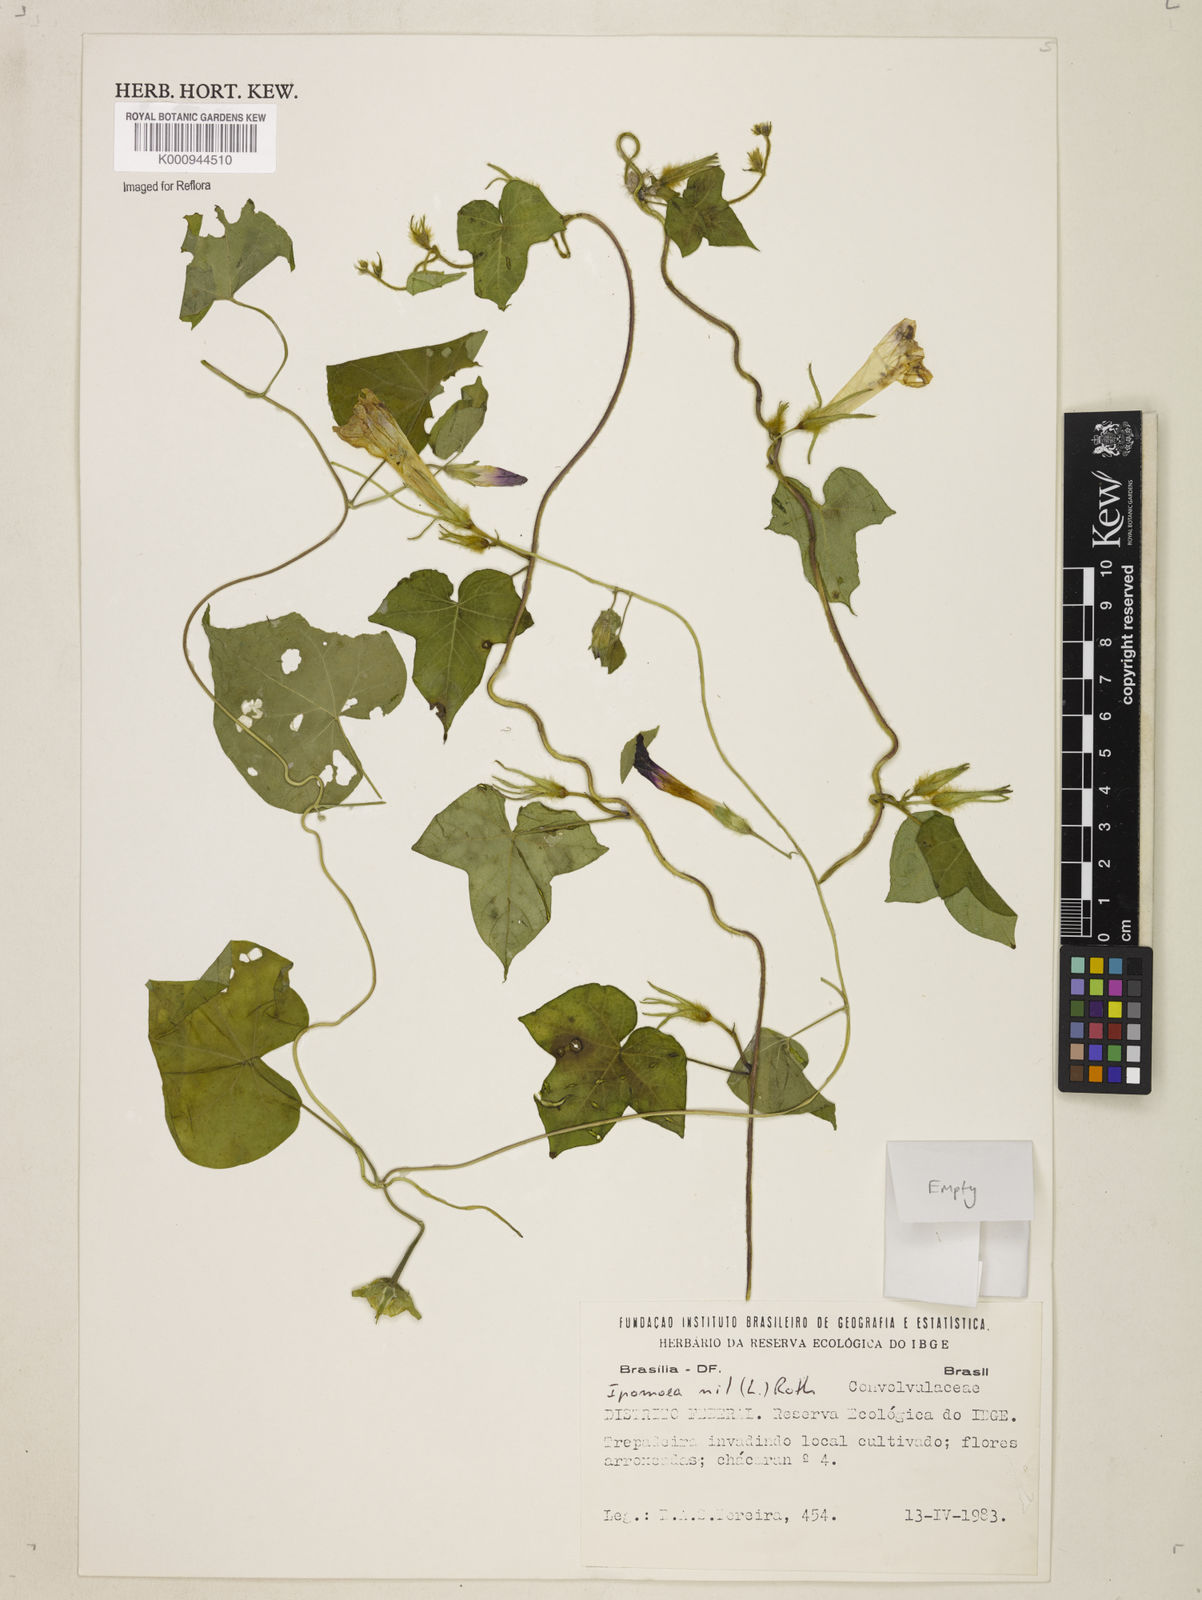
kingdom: Plantae
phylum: Tracheophyta
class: Magnoliopsida
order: Solanales
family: Convolvulaceae
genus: Ipomoea
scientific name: Ipomoea nil
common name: Japanese morning-glory
